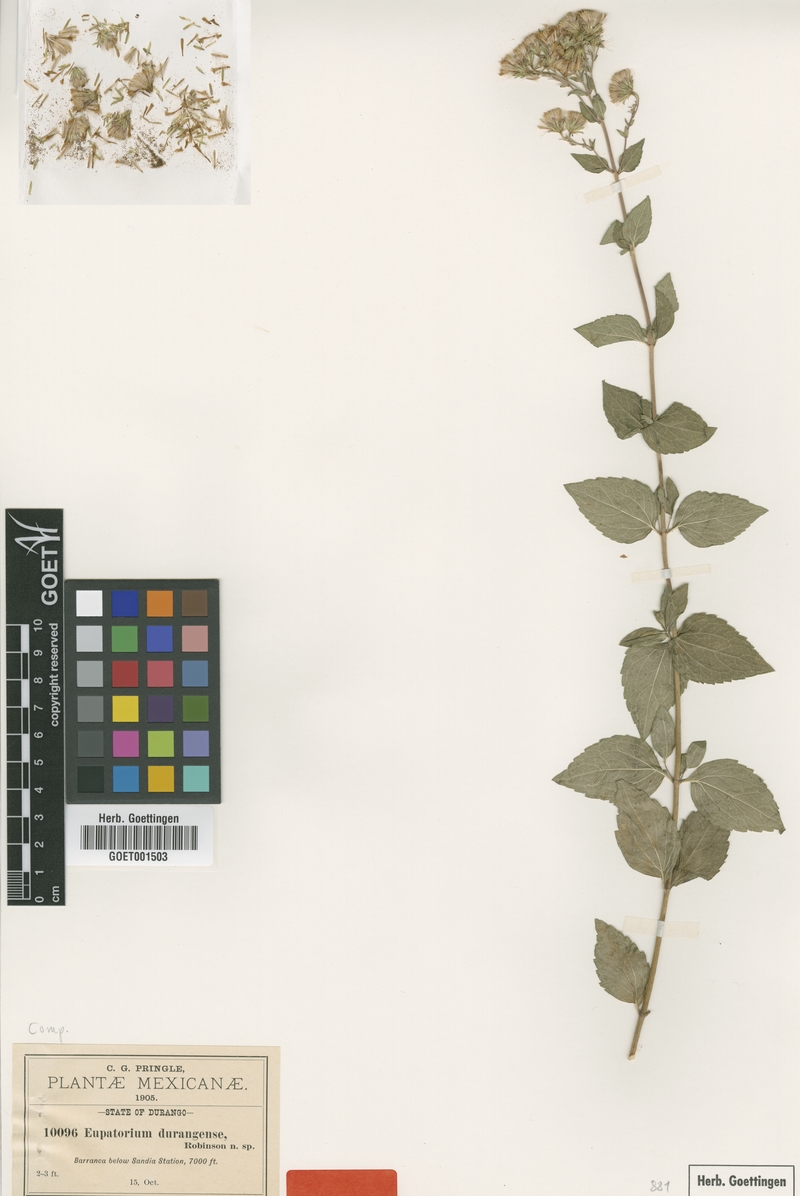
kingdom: Plantae
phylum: Tracheophyta
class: Magnoliopsida
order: Asterales
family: Asteraceae
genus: Ageratina
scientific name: Ageratina venulosa
